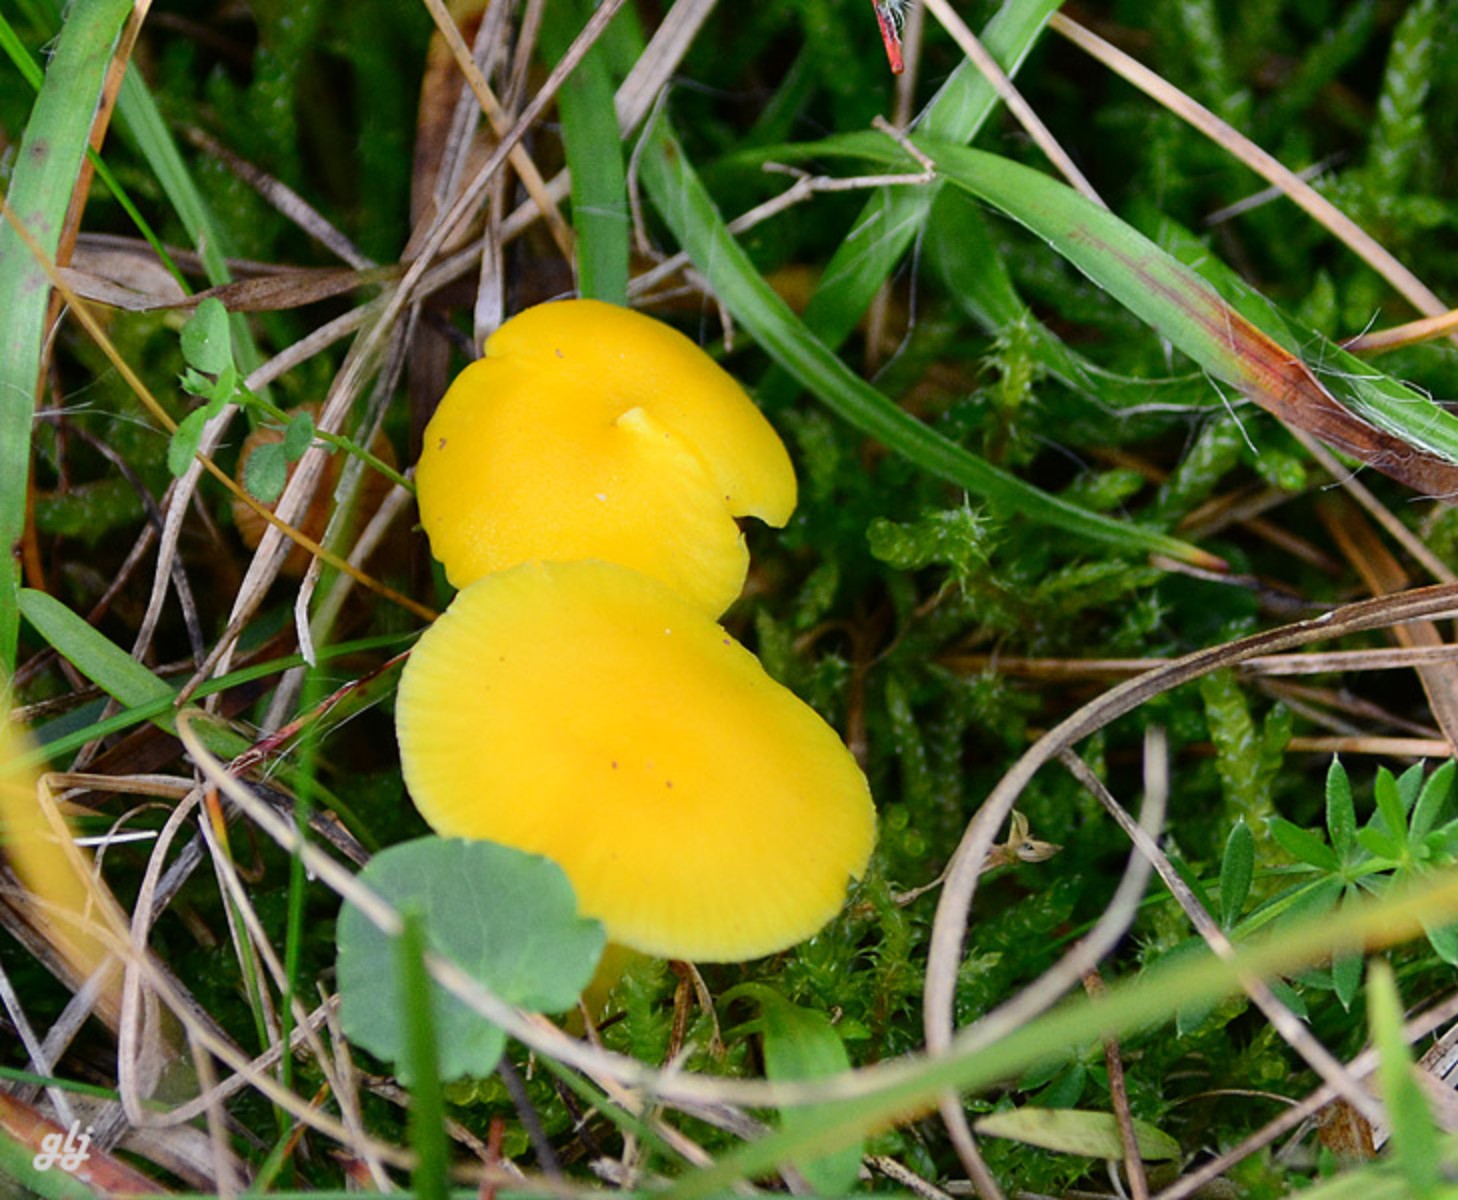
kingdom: Fungi
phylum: Basidiomycota
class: Agaricomycetes
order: Agaricales
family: Hygrophoraceae
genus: Hygrocybe
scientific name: Hygrocybe ceracea
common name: voksgul vokshat
